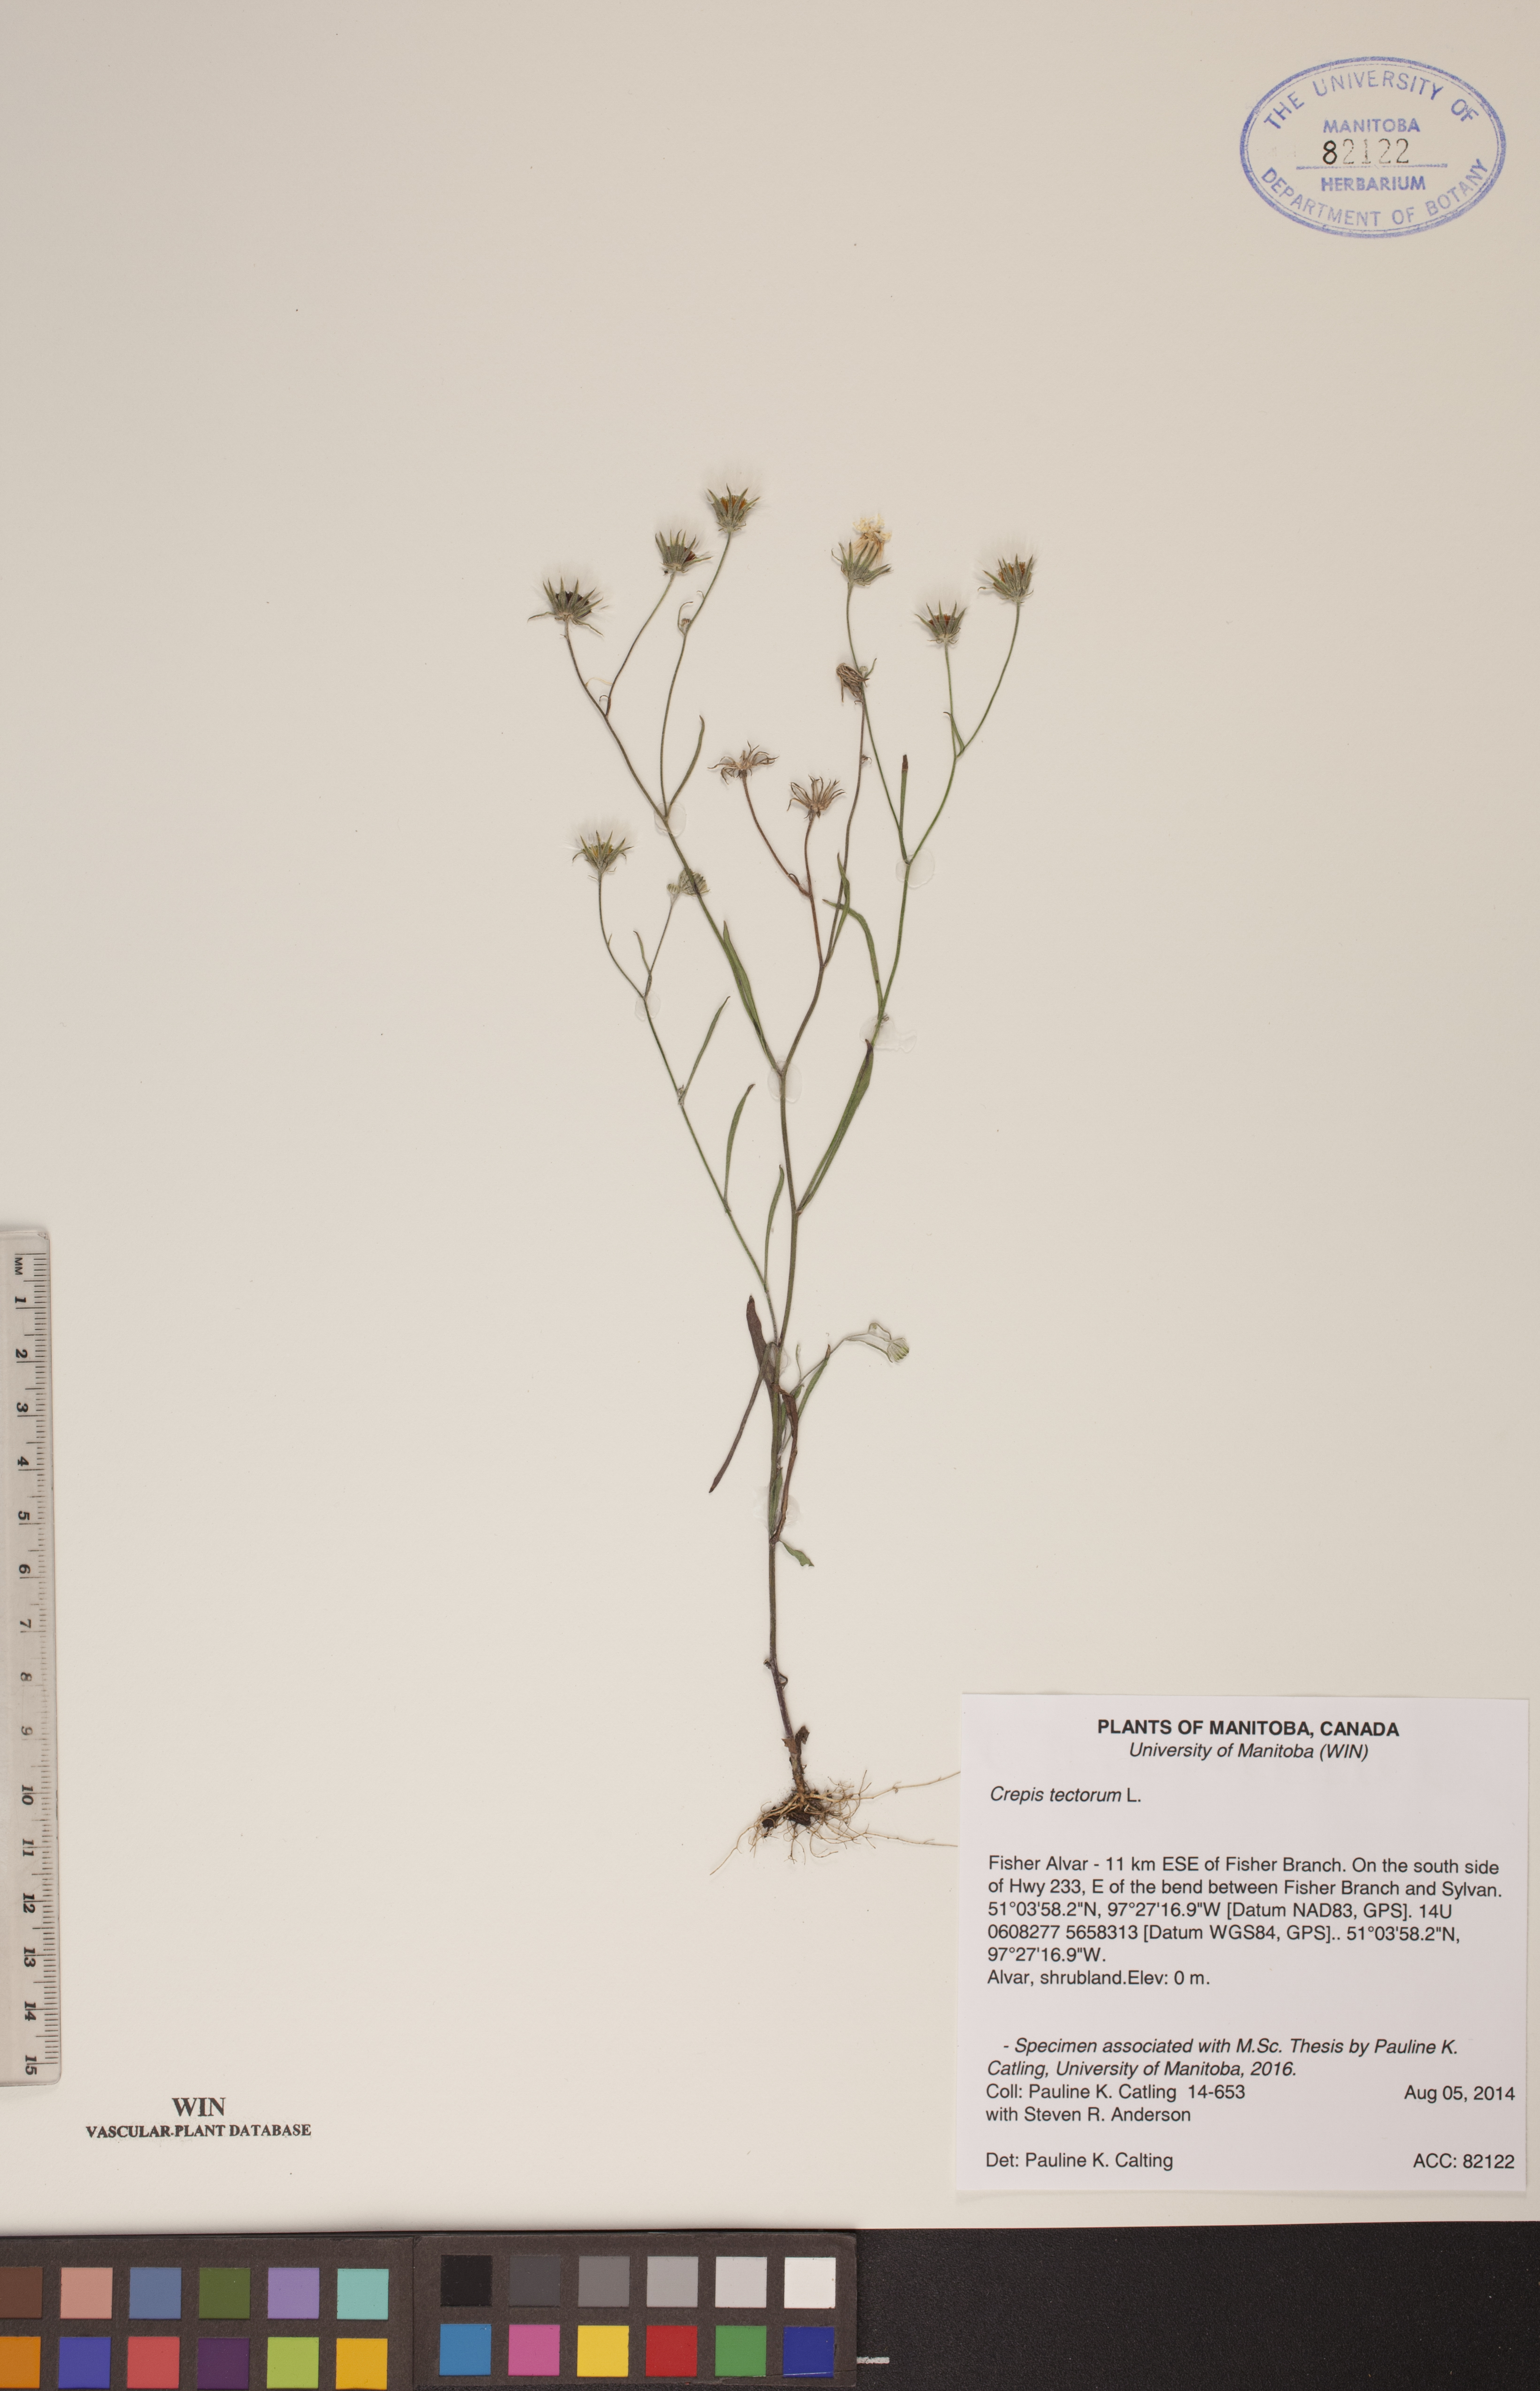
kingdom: Plantae
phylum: Tracheophyta
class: Magnoliopsida
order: Asterales
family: Asteraceae
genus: Crepis
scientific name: Crepis tectorum
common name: Narrow-leaved hawk's-beard
